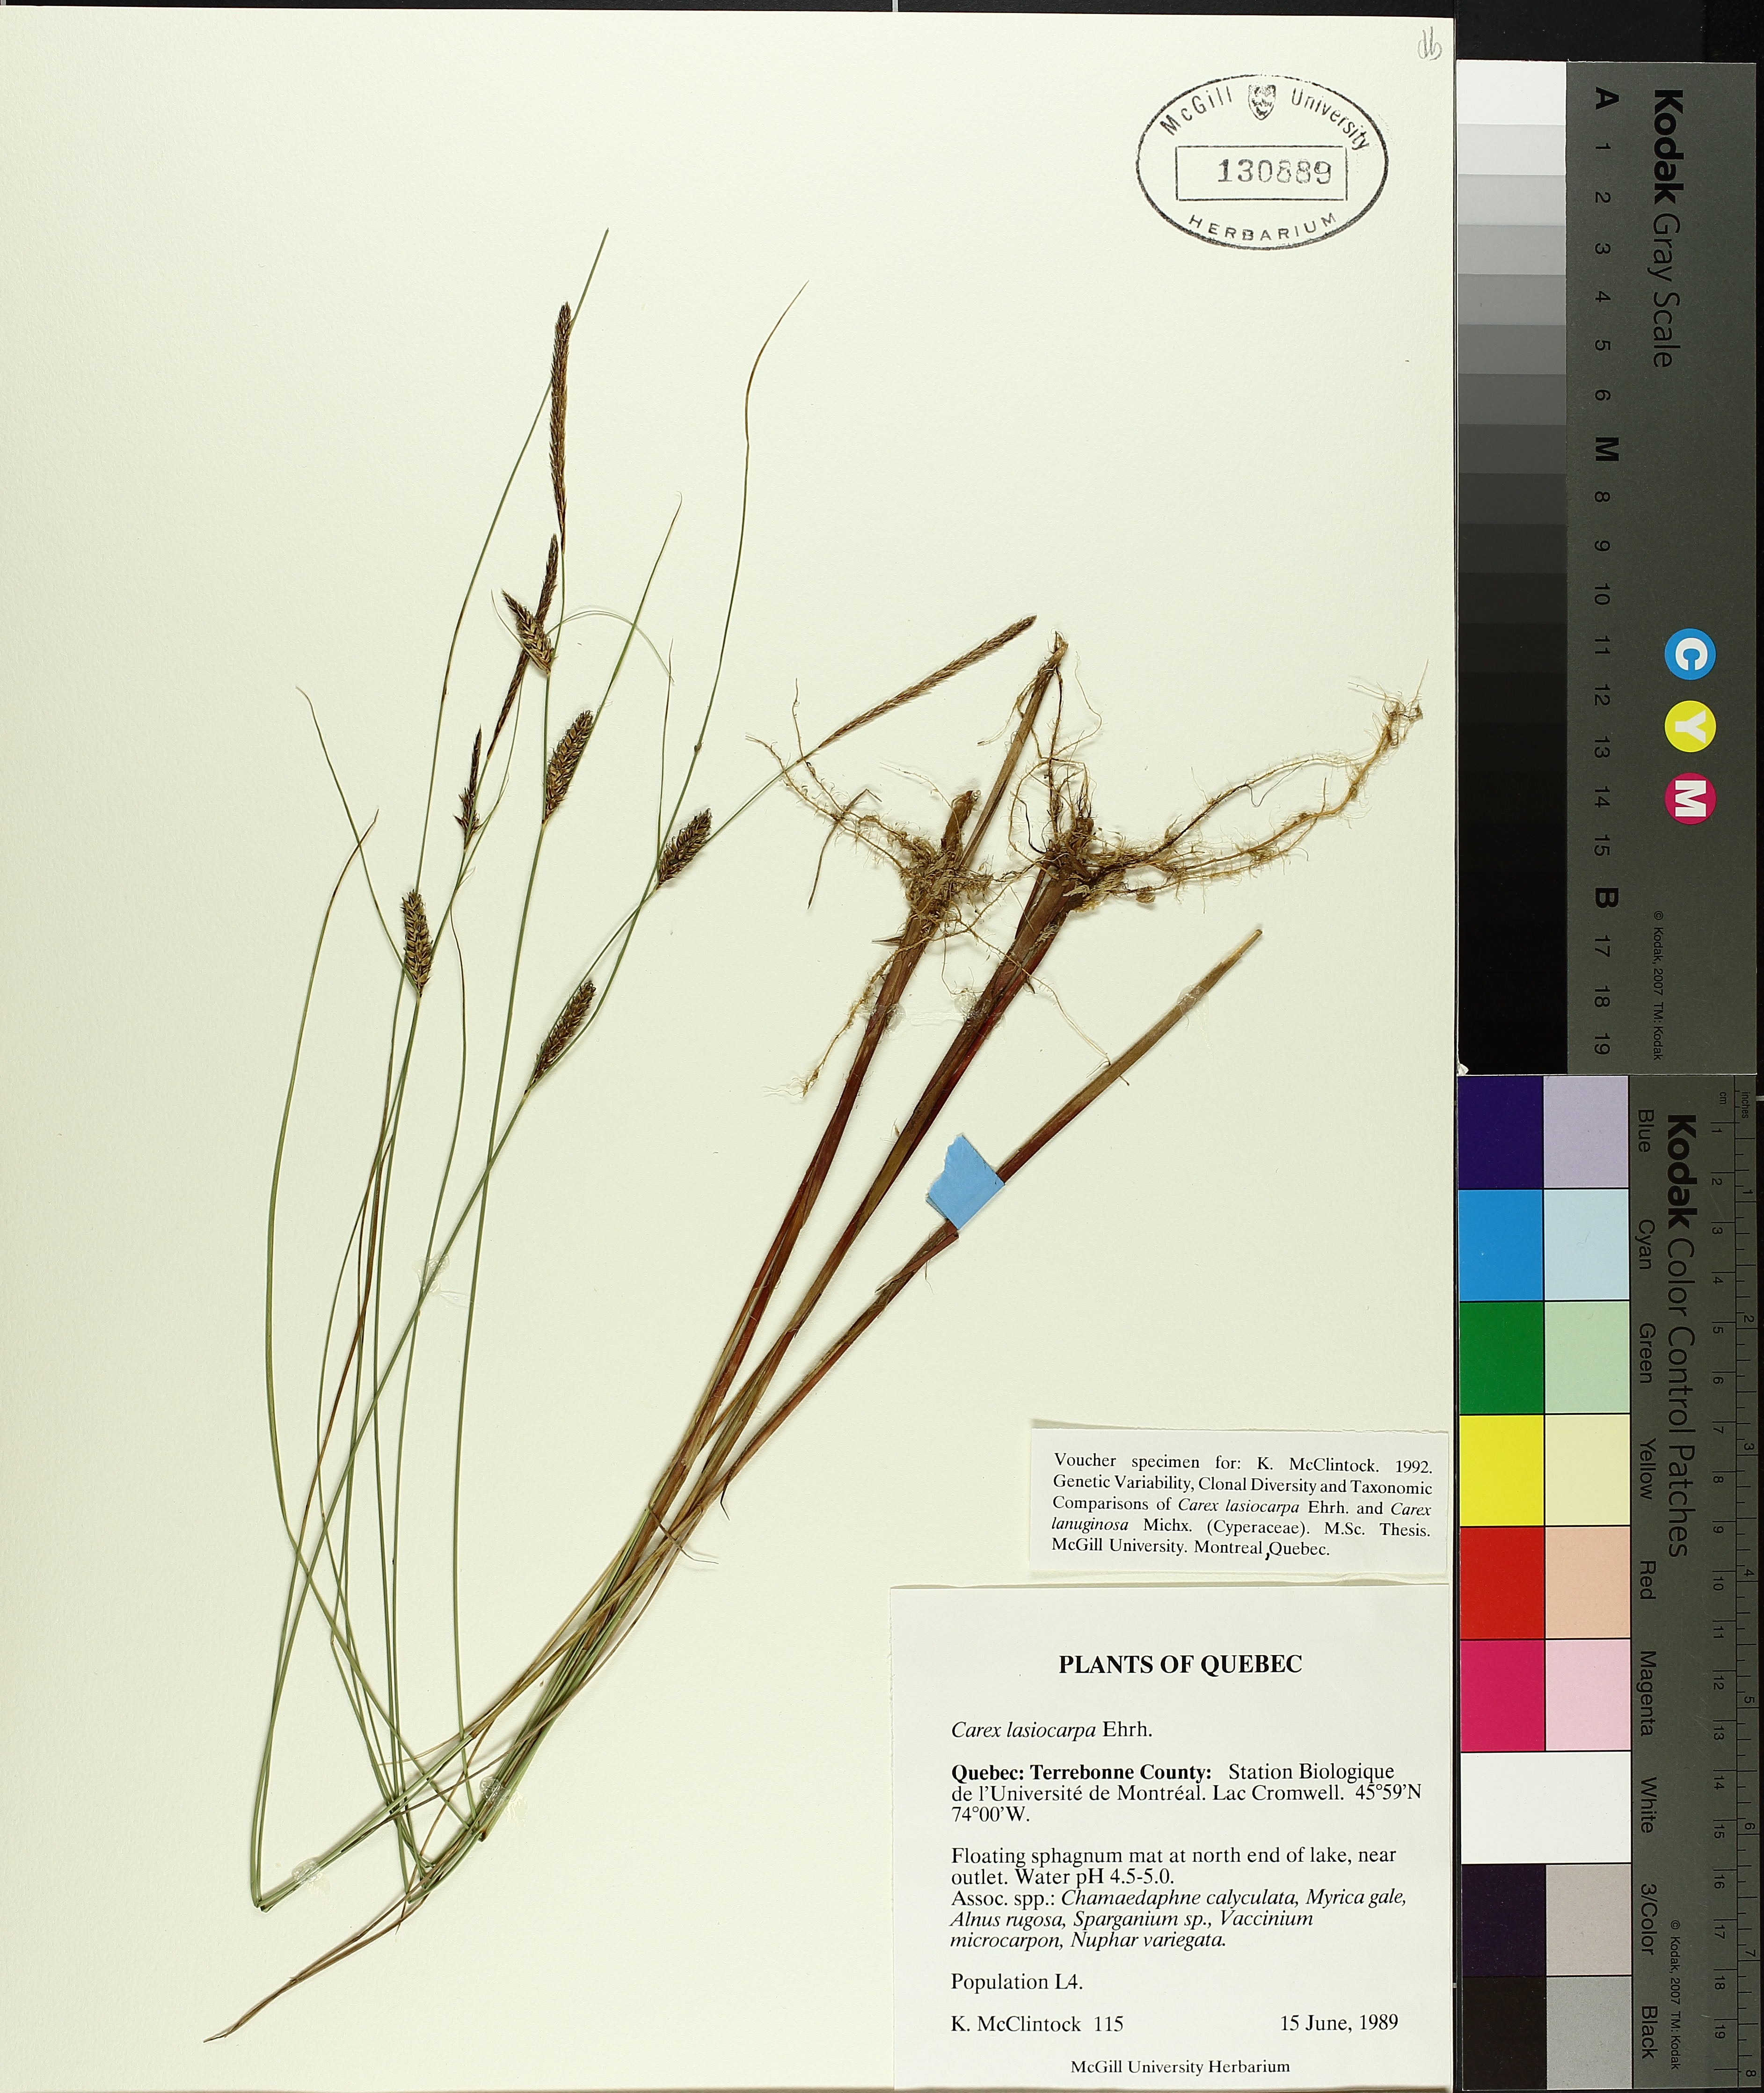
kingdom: Plantae
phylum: Tracheophyta
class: Liliopsida
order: Poales
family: Cyperaceae
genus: Carex
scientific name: Carex lasiocarpa
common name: Slender sedge
